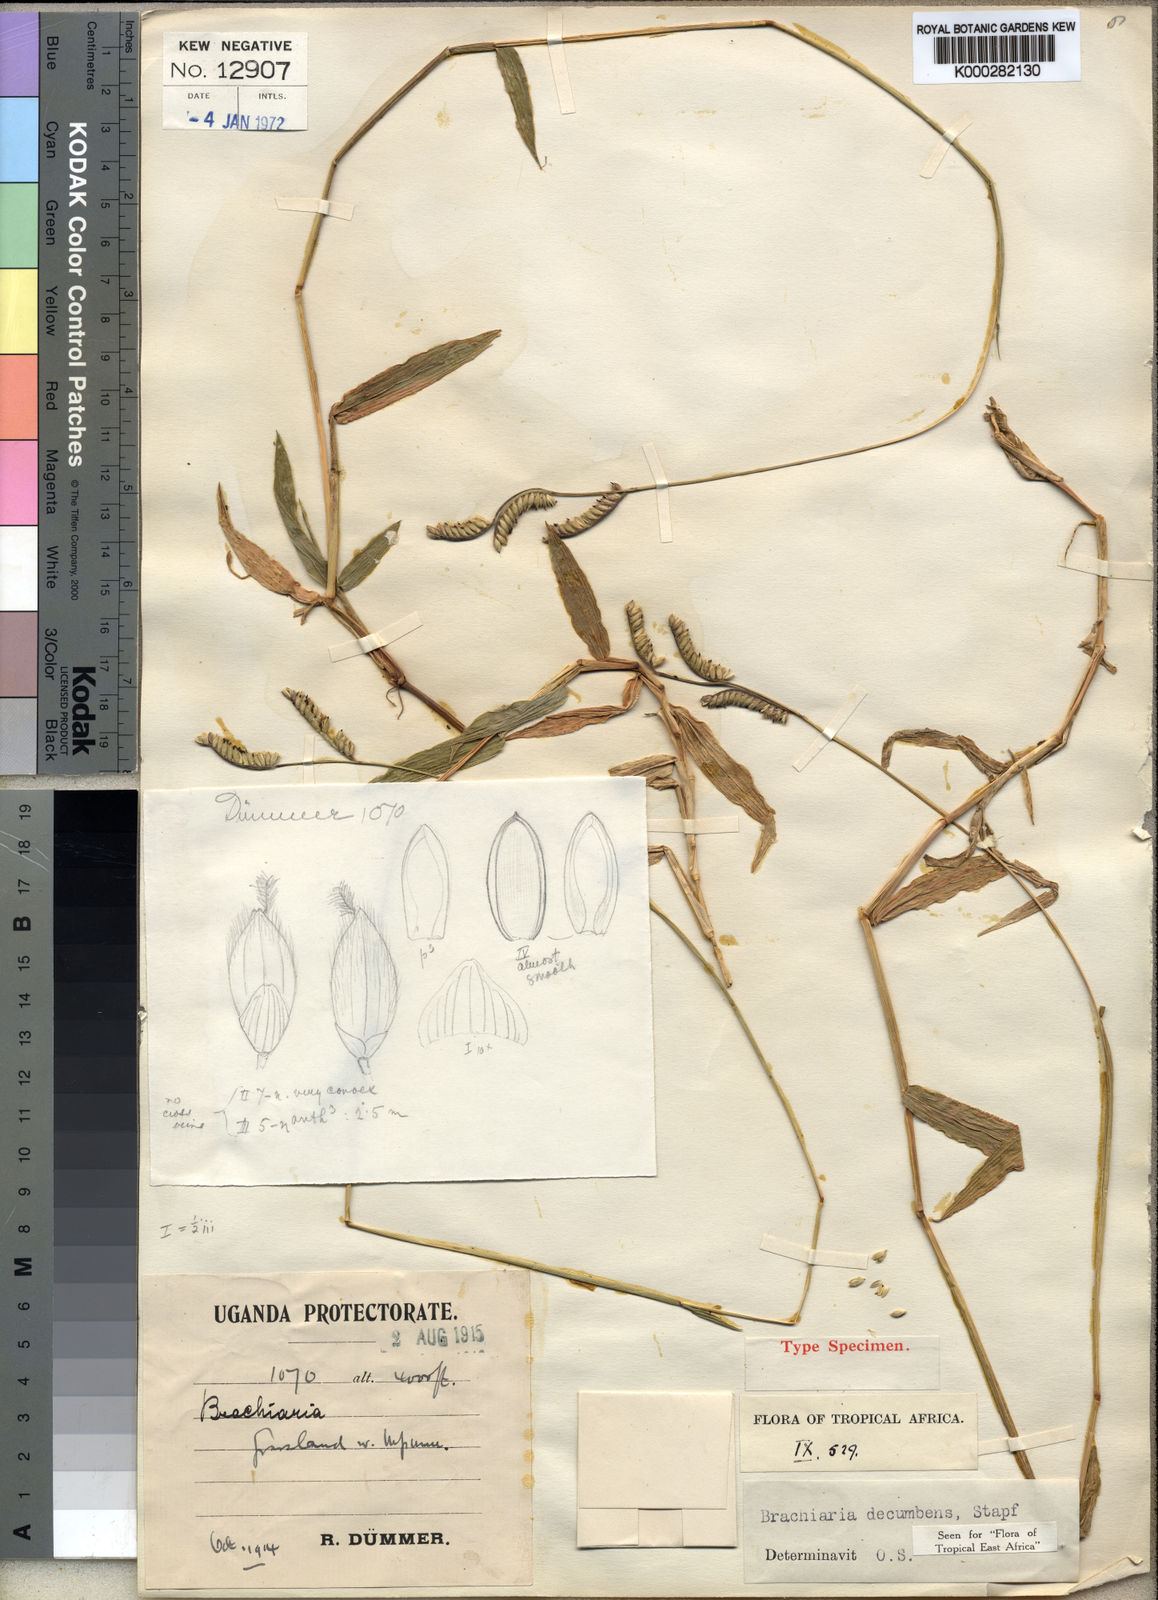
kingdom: Plantae
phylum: Tracheophyta
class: Liliopsida
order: Poales
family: Poaceae
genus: Urochloa
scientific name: Urochloa eminii
